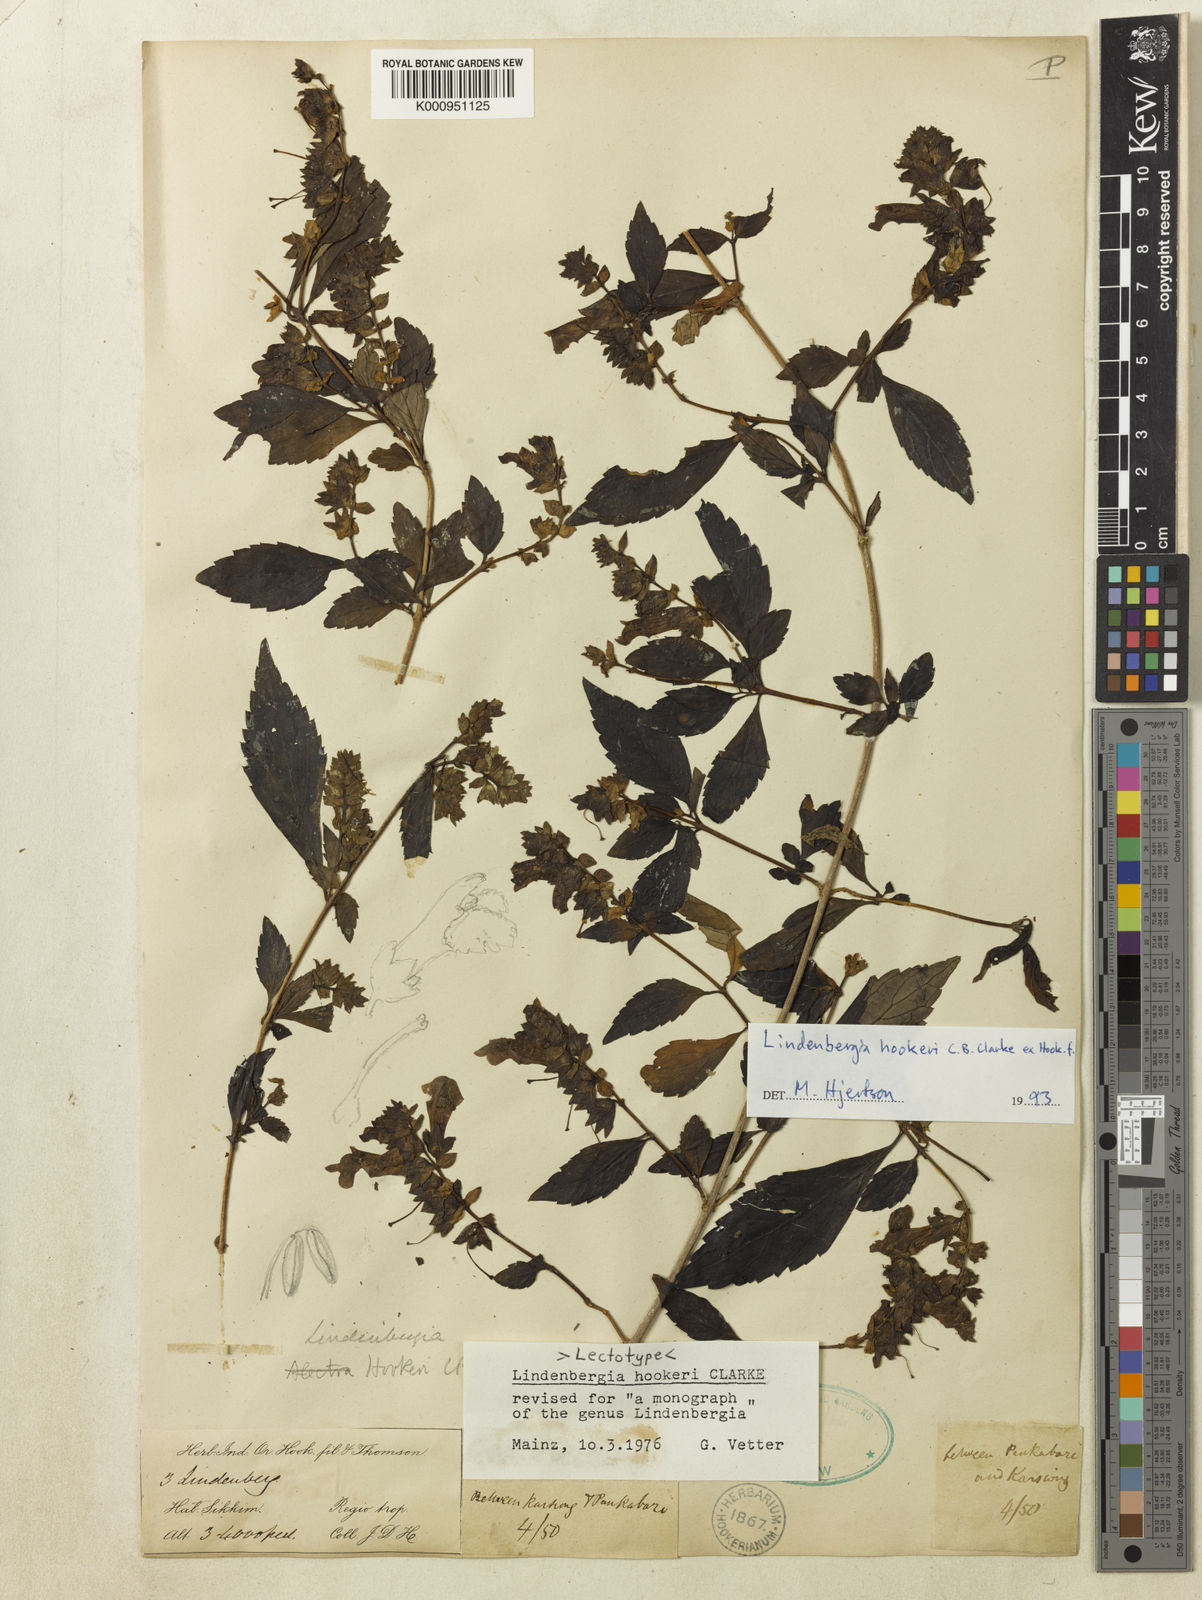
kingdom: Plantae
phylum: Tracheophyta
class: Magnoliopsida
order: Lamiales
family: Orobanchaceae
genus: Lindenbergia
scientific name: Lindenbergia hookeri
